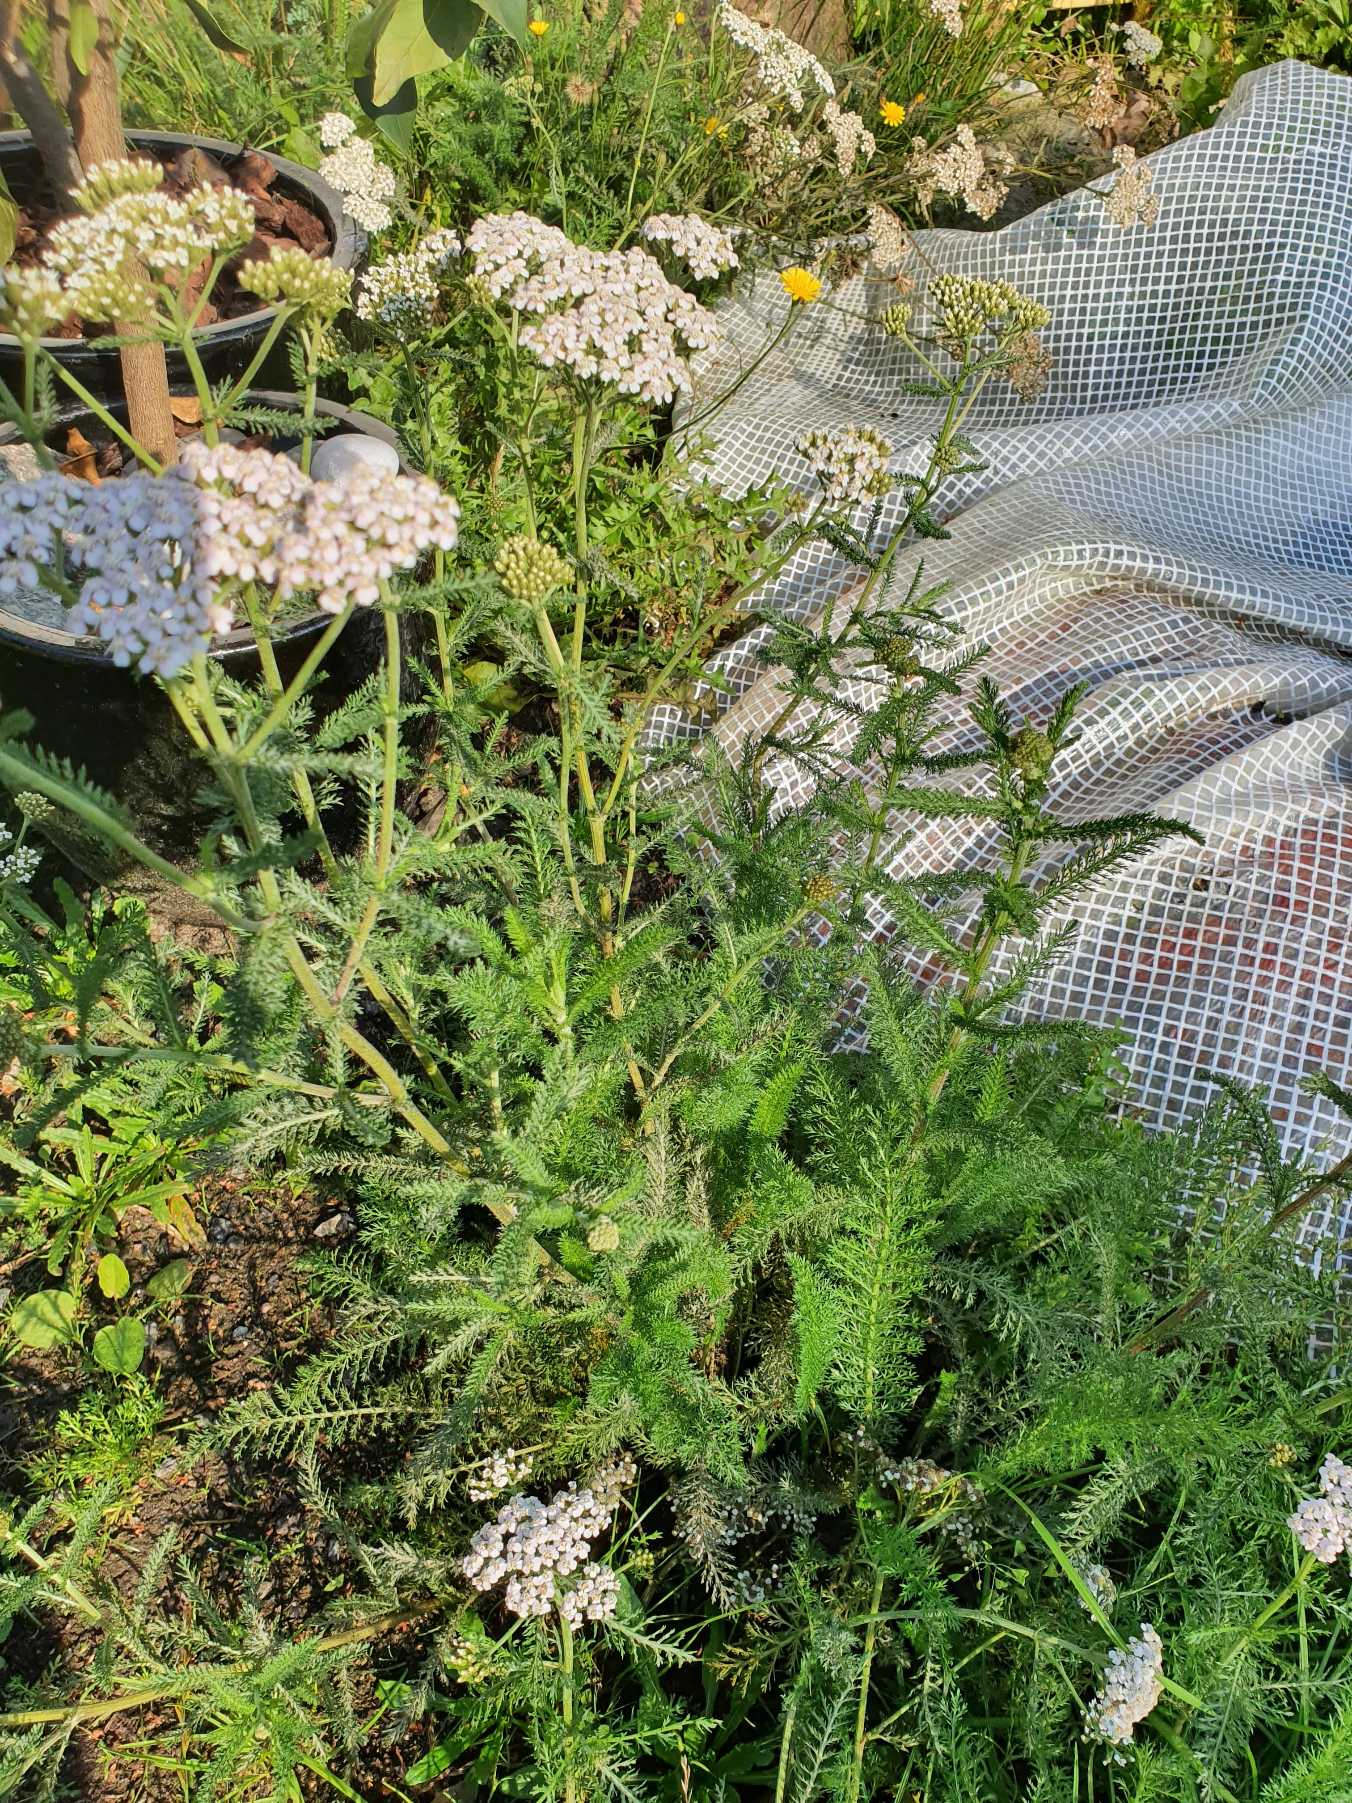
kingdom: Plantae
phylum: Tracheophyta
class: Magnoliopsida
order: Asterales
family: Asteraceae
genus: Achillea
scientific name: Achillea millefolium
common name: Almindelig røllike
